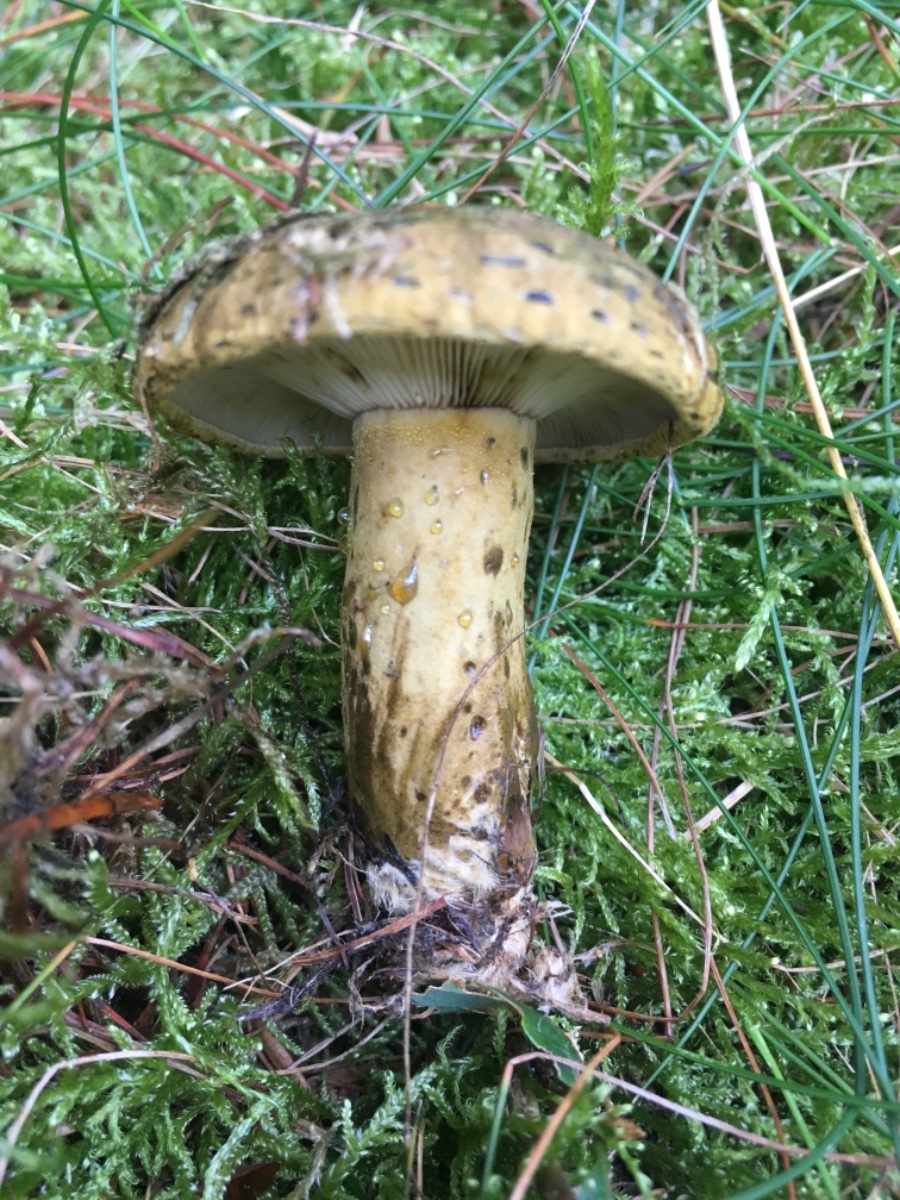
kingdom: Fungi
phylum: Basidiomycota
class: Agaricomycetes
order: Russulales
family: Russulaceae
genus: Lactarius
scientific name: Lactarius necator
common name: manddraber-mælkehat
